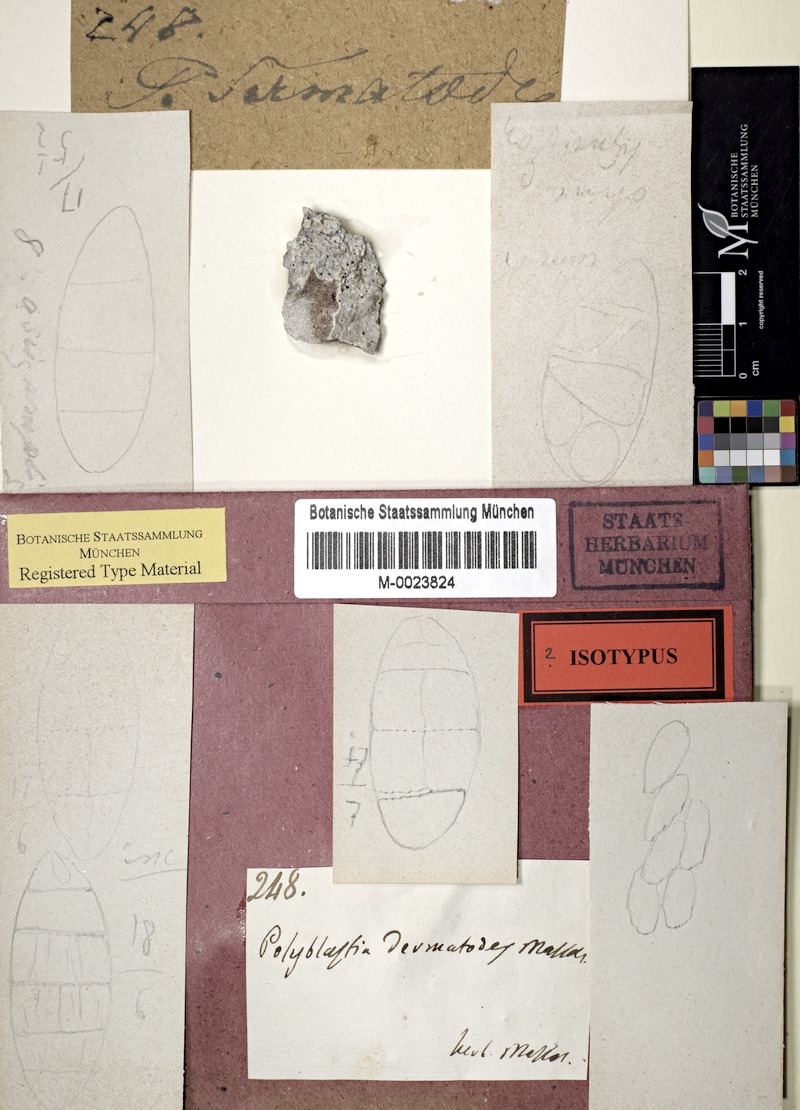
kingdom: Fungi
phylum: Ascomycota
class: Eurotiomycetes
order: Verrucariales
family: Verrucariaceae
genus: Polyblastia
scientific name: Polyblastia dermatodes
